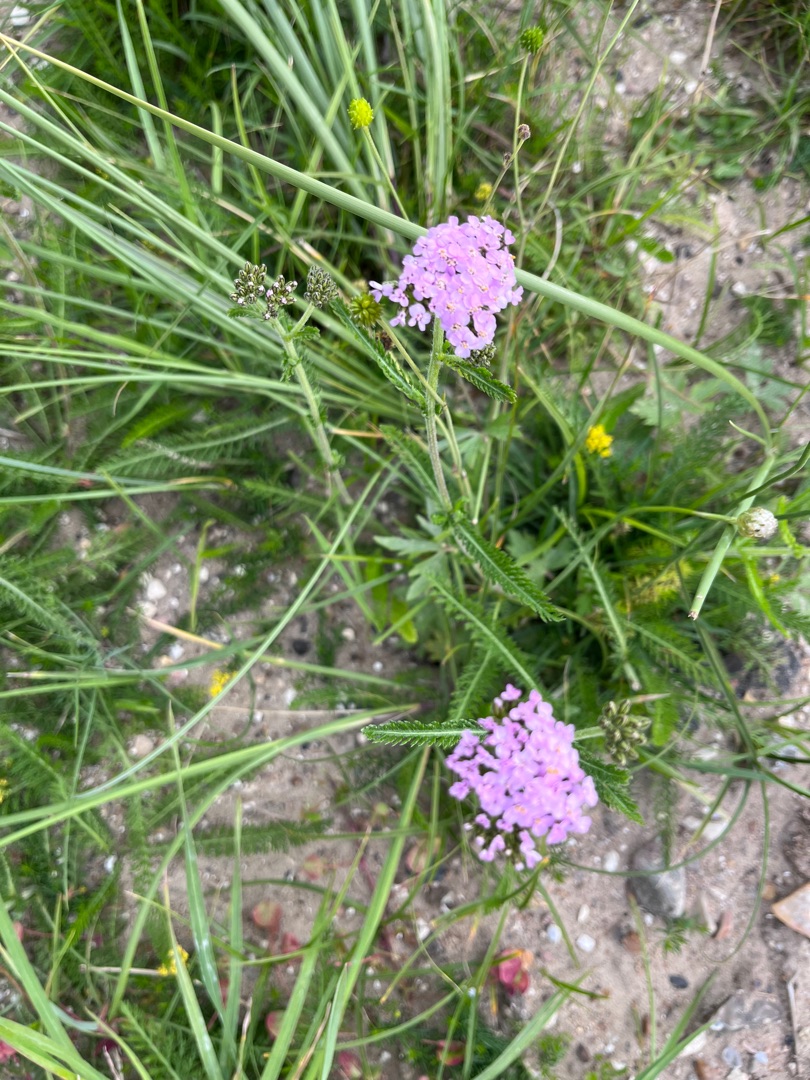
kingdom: Plantae
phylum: Tracheophyta
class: Magnoliopsida
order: Asterales
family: Asteraceae
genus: Achillea
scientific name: Achillea millefolium
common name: Almindelig røllike
